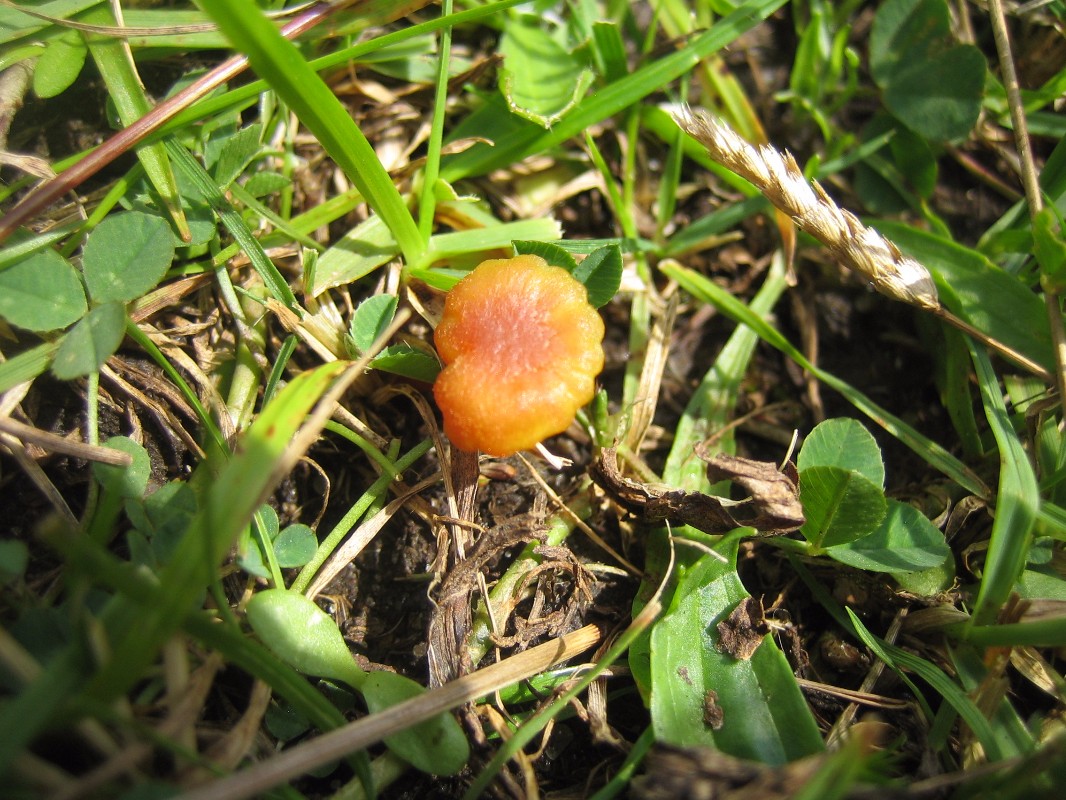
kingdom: Fungi
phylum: Basidiomycota
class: Agaricomycetes
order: Agaricales
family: Hygrophoraceae
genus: Hygrocybe
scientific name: Hygrocybe cantharellus
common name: kantarel-vokshat
